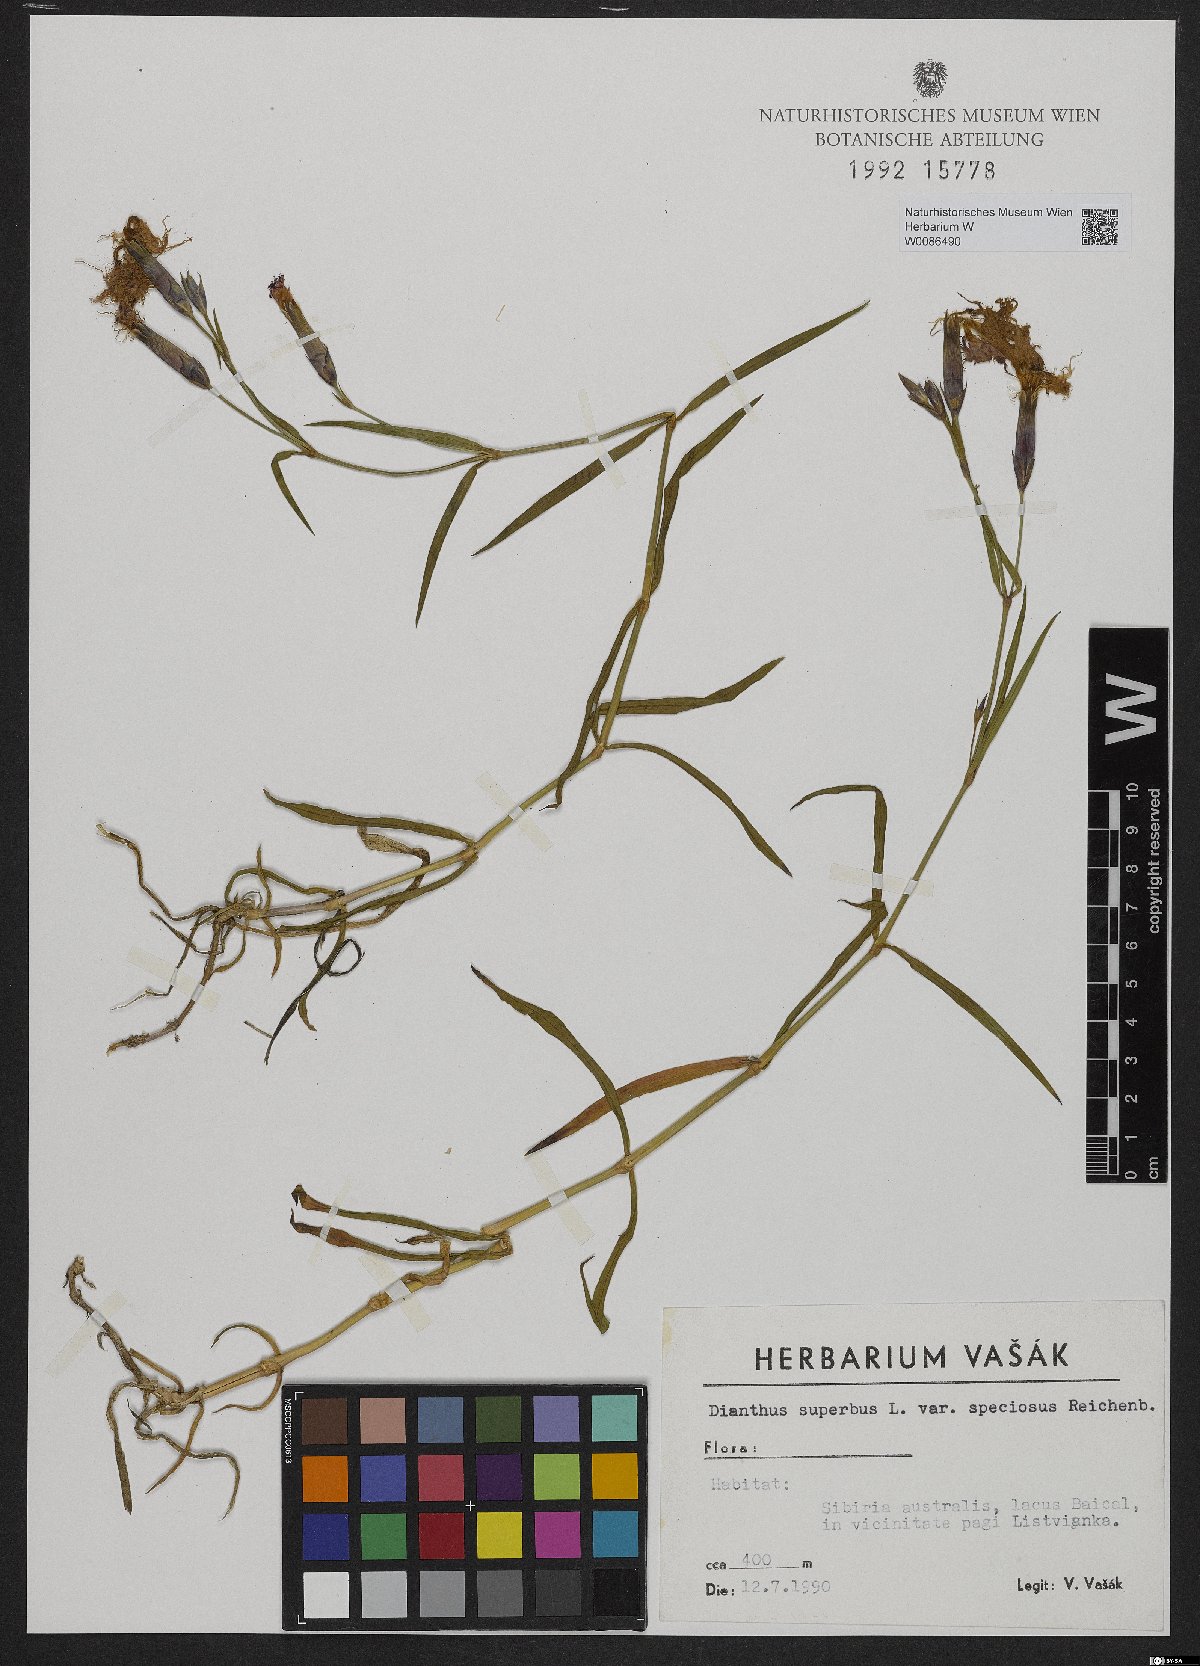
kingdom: Plantae
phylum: Tracheophyta
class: Magnoliopsida
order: Caryophyllales
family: Caryophyllaceae
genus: Dianthus
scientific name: Dianthus superbus
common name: Fringed pink
